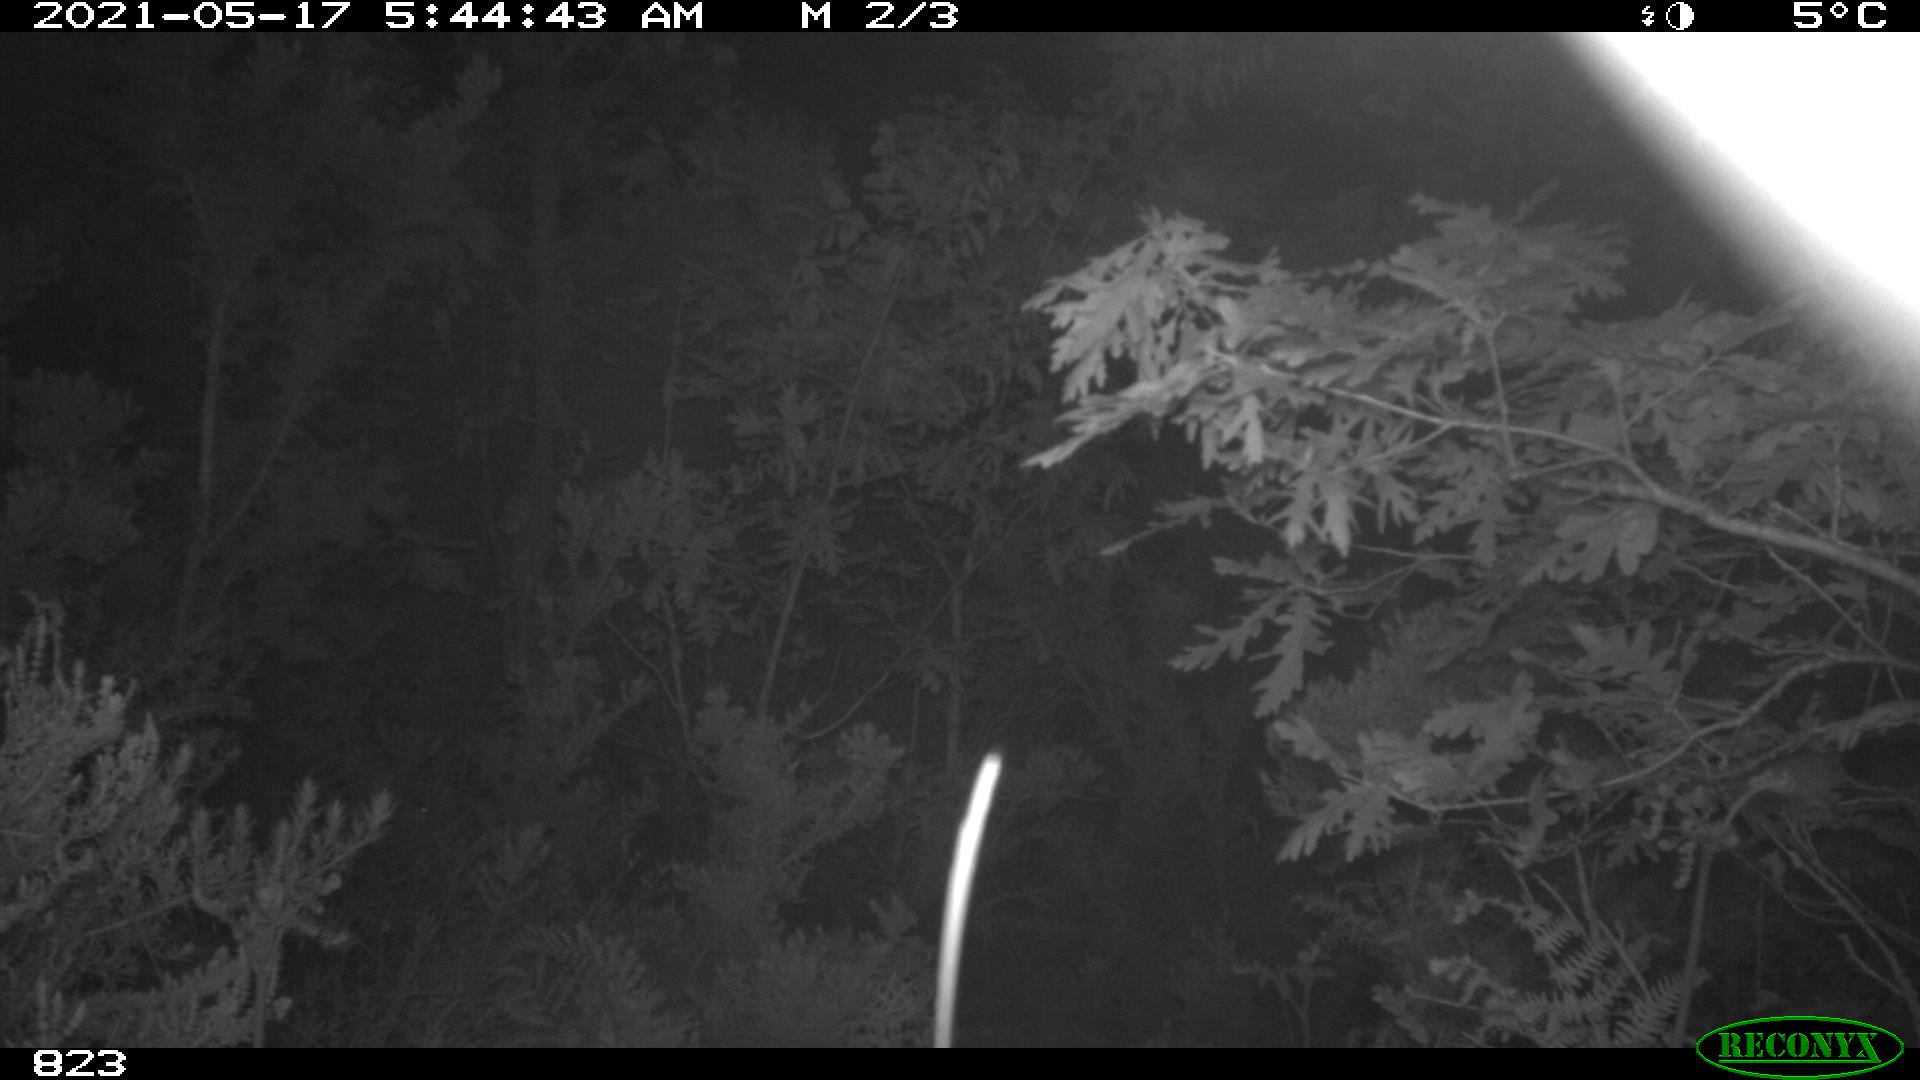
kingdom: Animalia
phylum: Chordata
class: Mammalia
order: Artiodactyla
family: Suidae
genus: Sus
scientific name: Sus scrofa
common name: Wild boar
